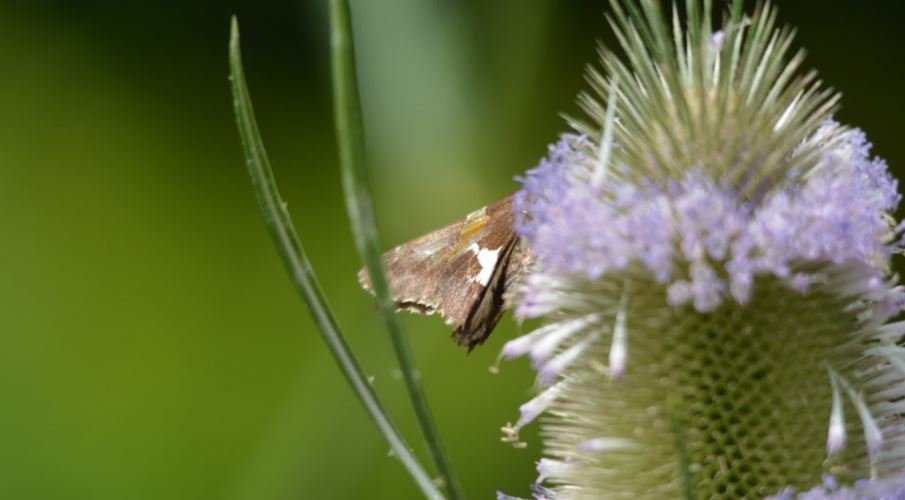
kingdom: Animalia
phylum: Arthropoda
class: Insecta
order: Lepidoptera
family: Hesperiidae
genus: Epargyreus
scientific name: Epargyreus clarus
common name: Silver-spotted Skipper
